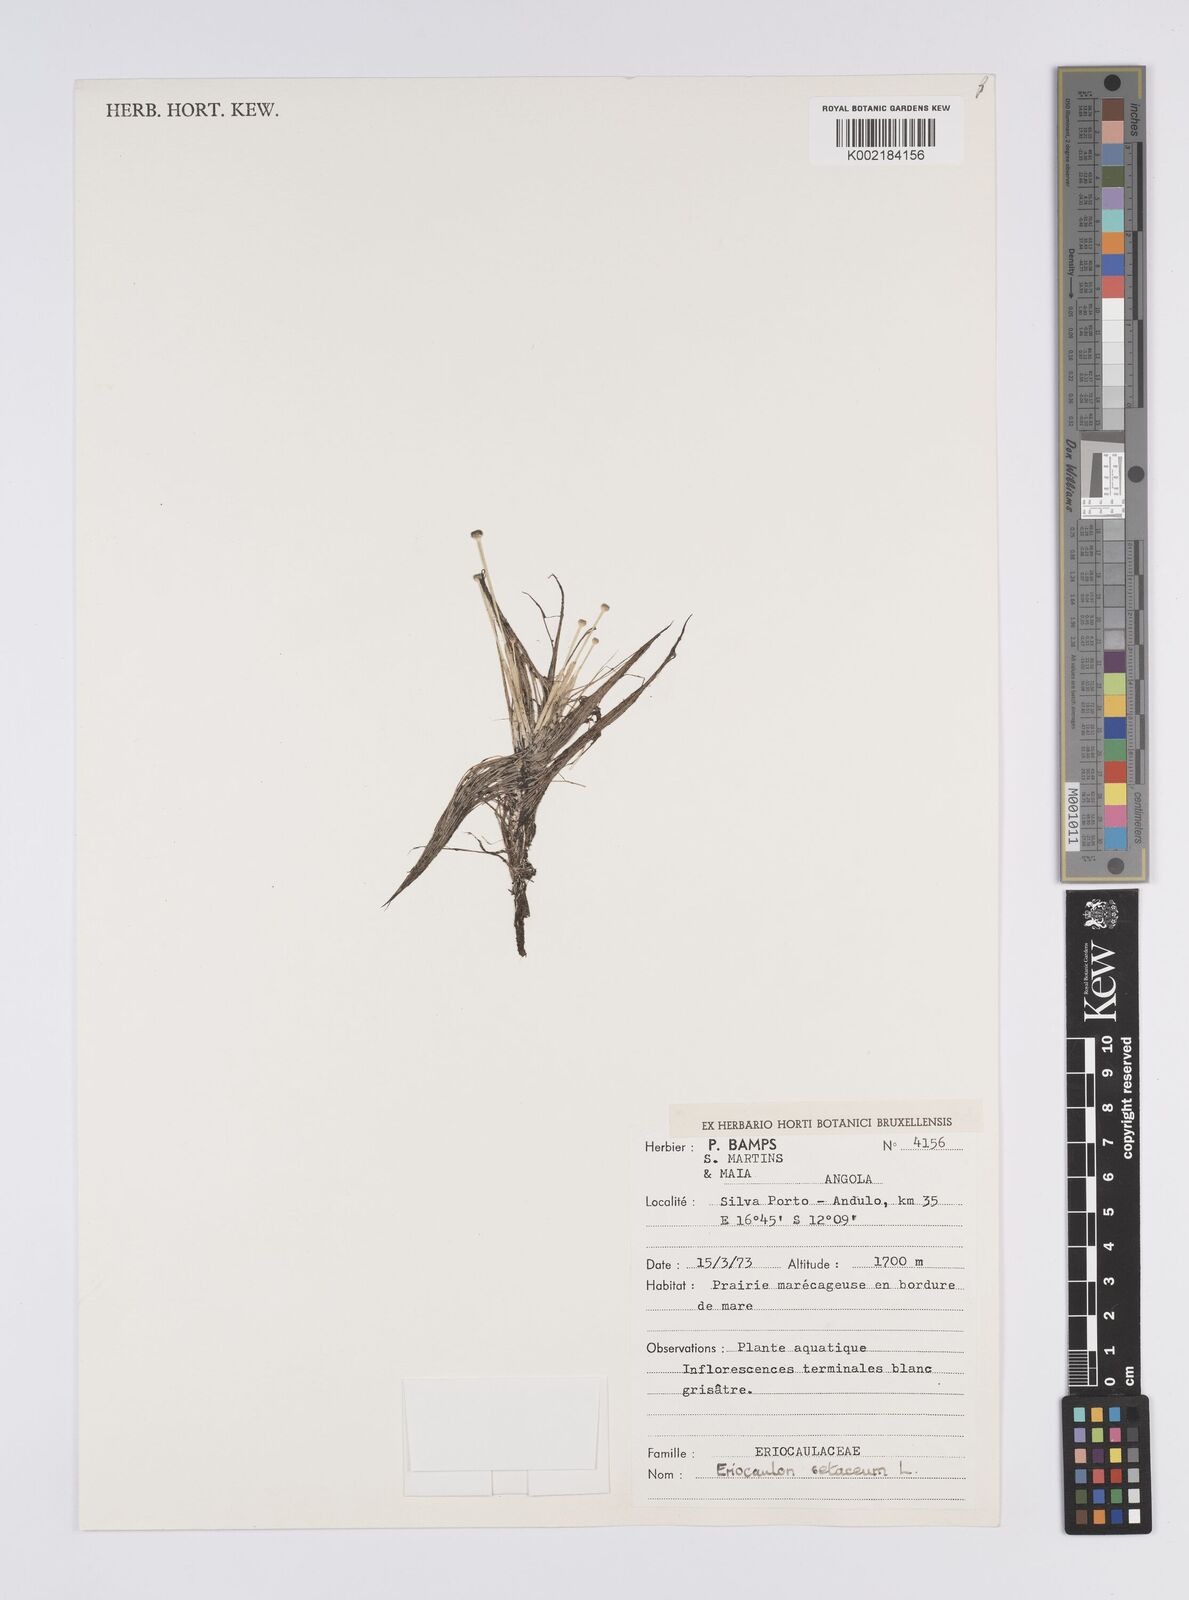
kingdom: Plantae
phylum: Tracheophyta
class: Liliopsida
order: Poales
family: Eriocaulaceae
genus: Eriocaulon
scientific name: Eriocaulon setaceum
